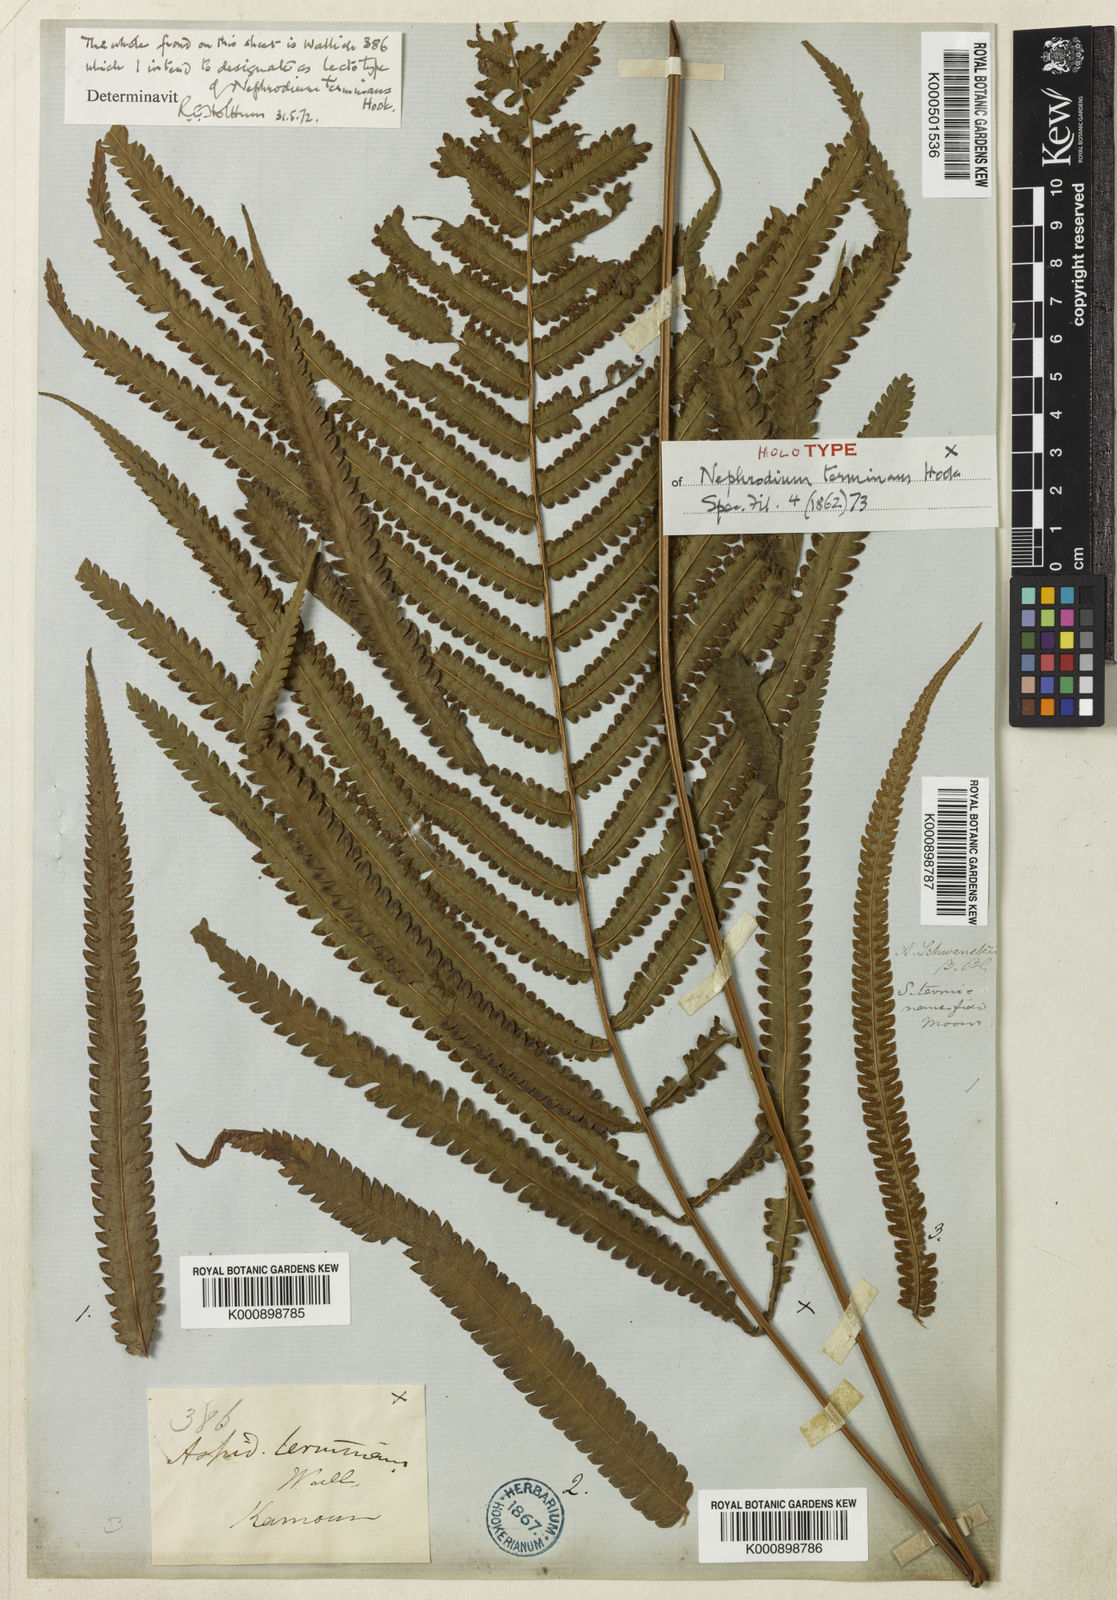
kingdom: Plantae
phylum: Tracheophyta
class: Polypodiopsida
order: Polypodiales
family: Thelypteridaceae
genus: Amblovenatum
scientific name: Amblovenatum terminans
